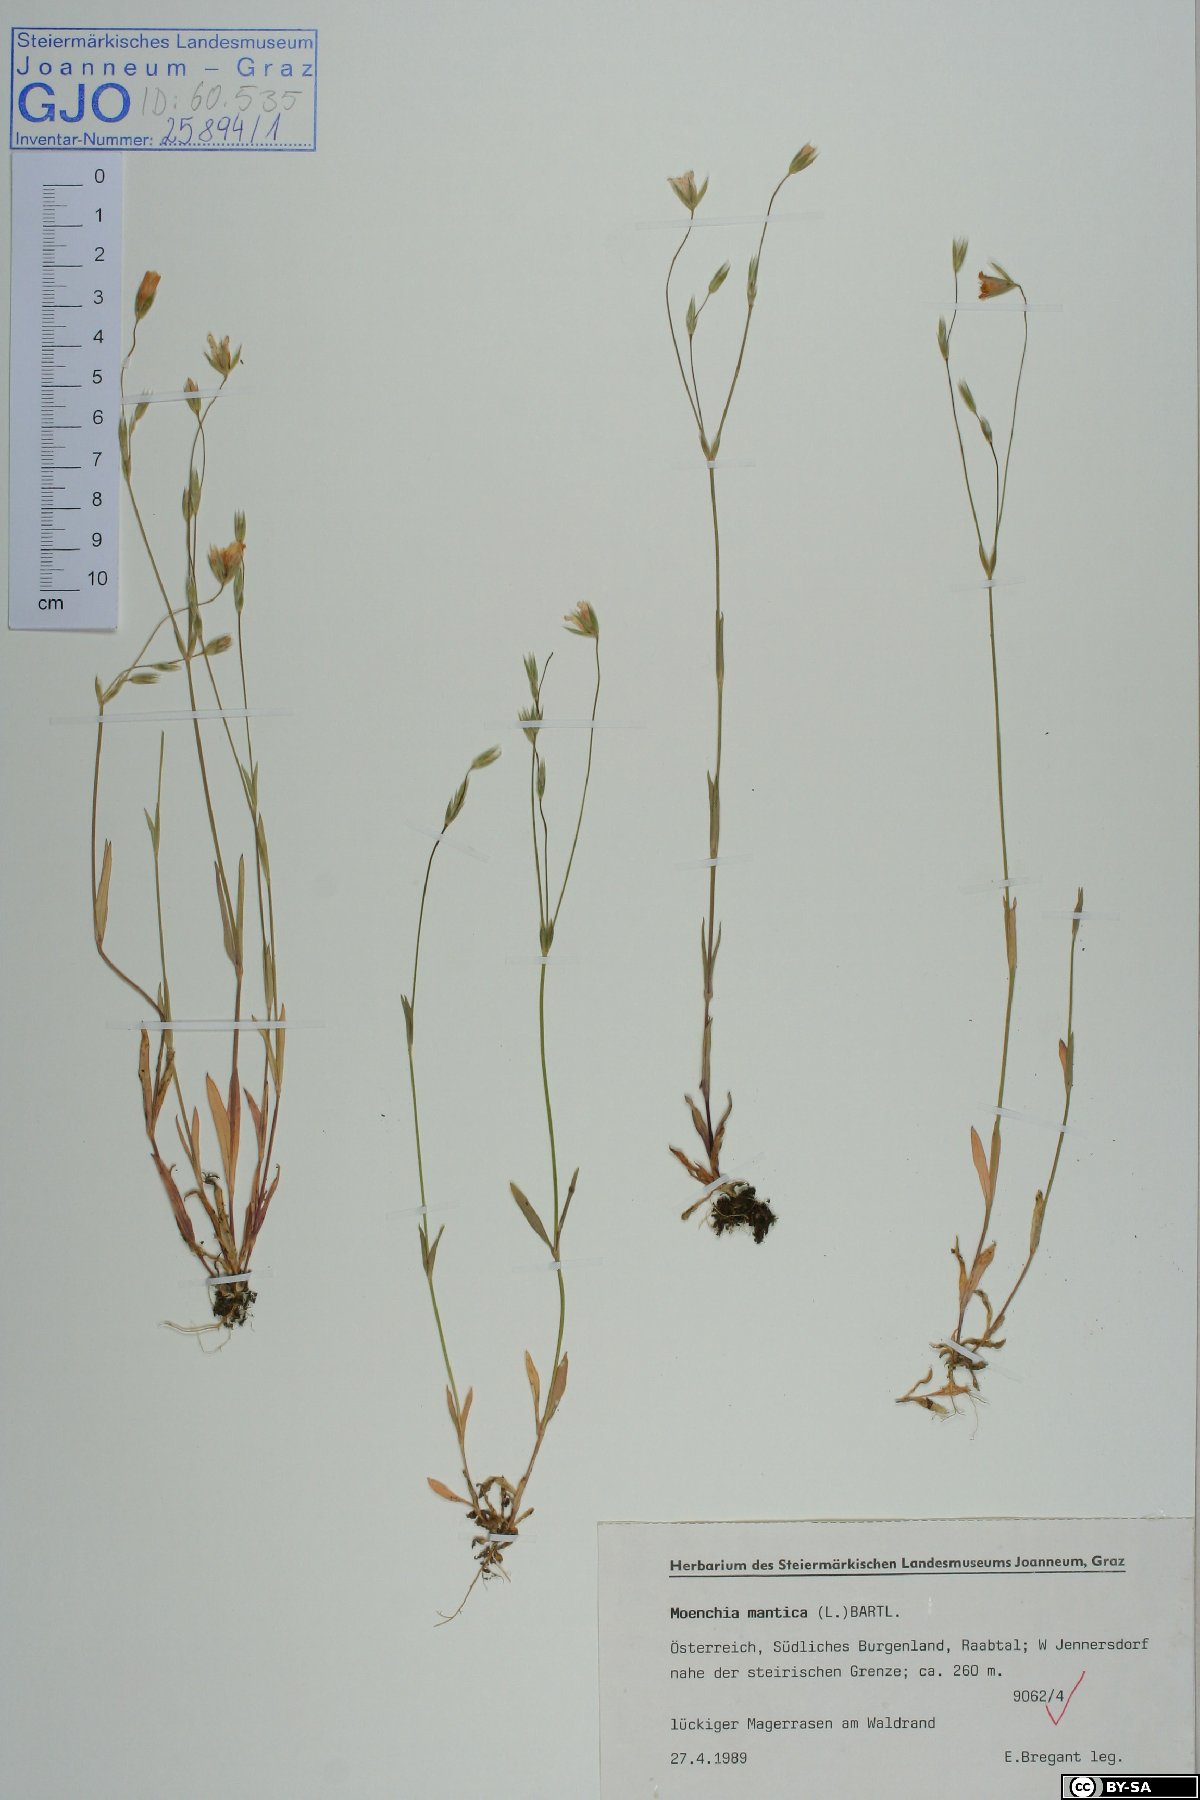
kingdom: Plantae
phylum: Tracheophyta
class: Magnoliopsida
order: Caryophyllales
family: Caryophyllaceae
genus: Moenchia
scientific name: Moenchia mantica
